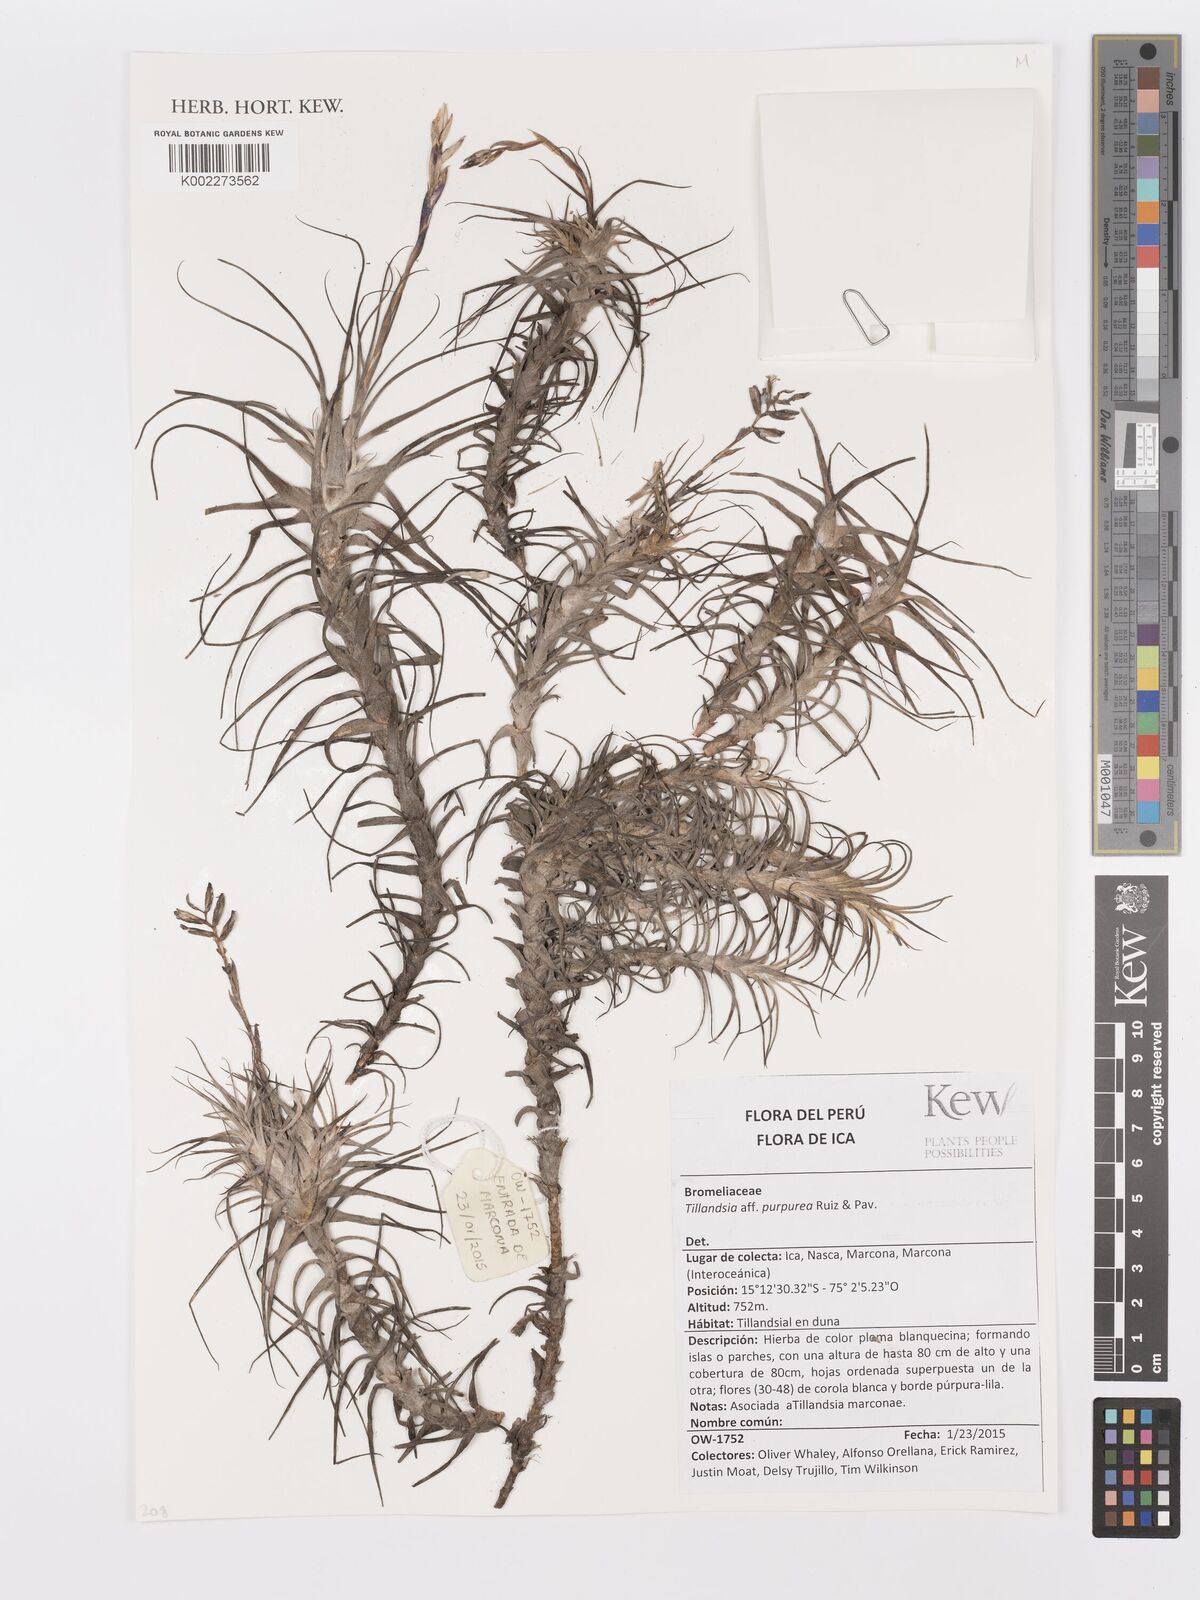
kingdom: Plantae
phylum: Tracheophyta
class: Liliopsida
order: Poales
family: Bromeliaceae
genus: Tillandsia
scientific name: Tillandsia purpurea
